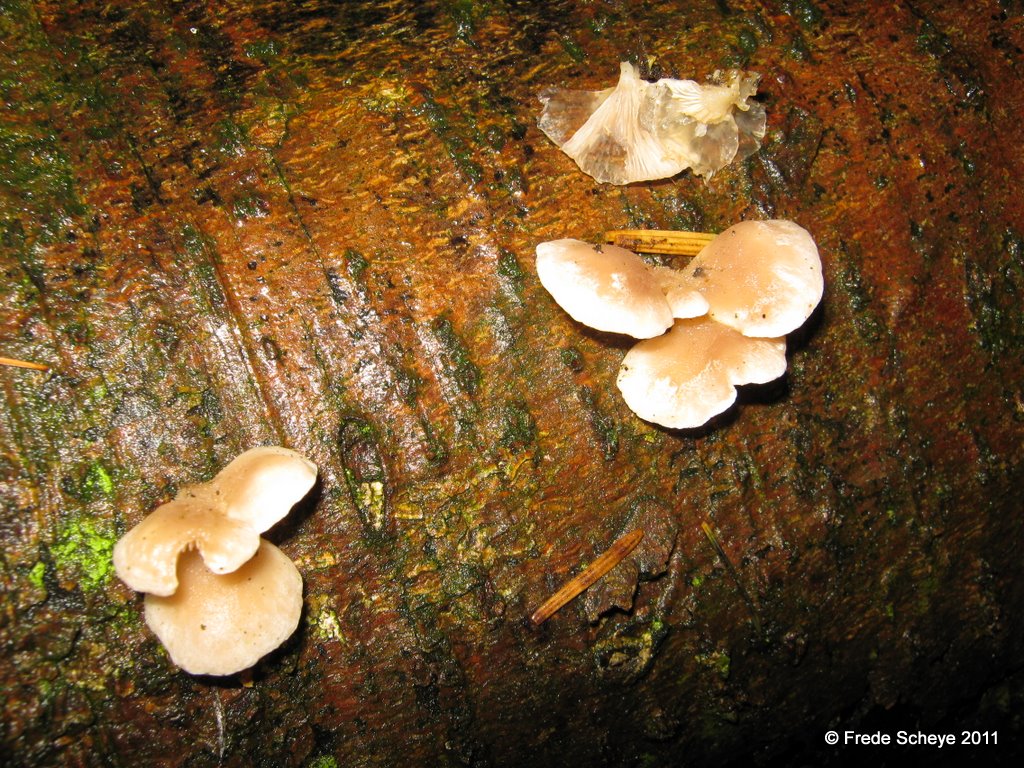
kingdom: Fungi
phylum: Basidiomycota
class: Agaricomycetes
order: Agaricales
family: Mycenaceae
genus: Panellus
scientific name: Panellus mitis
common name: mild epaulethat
